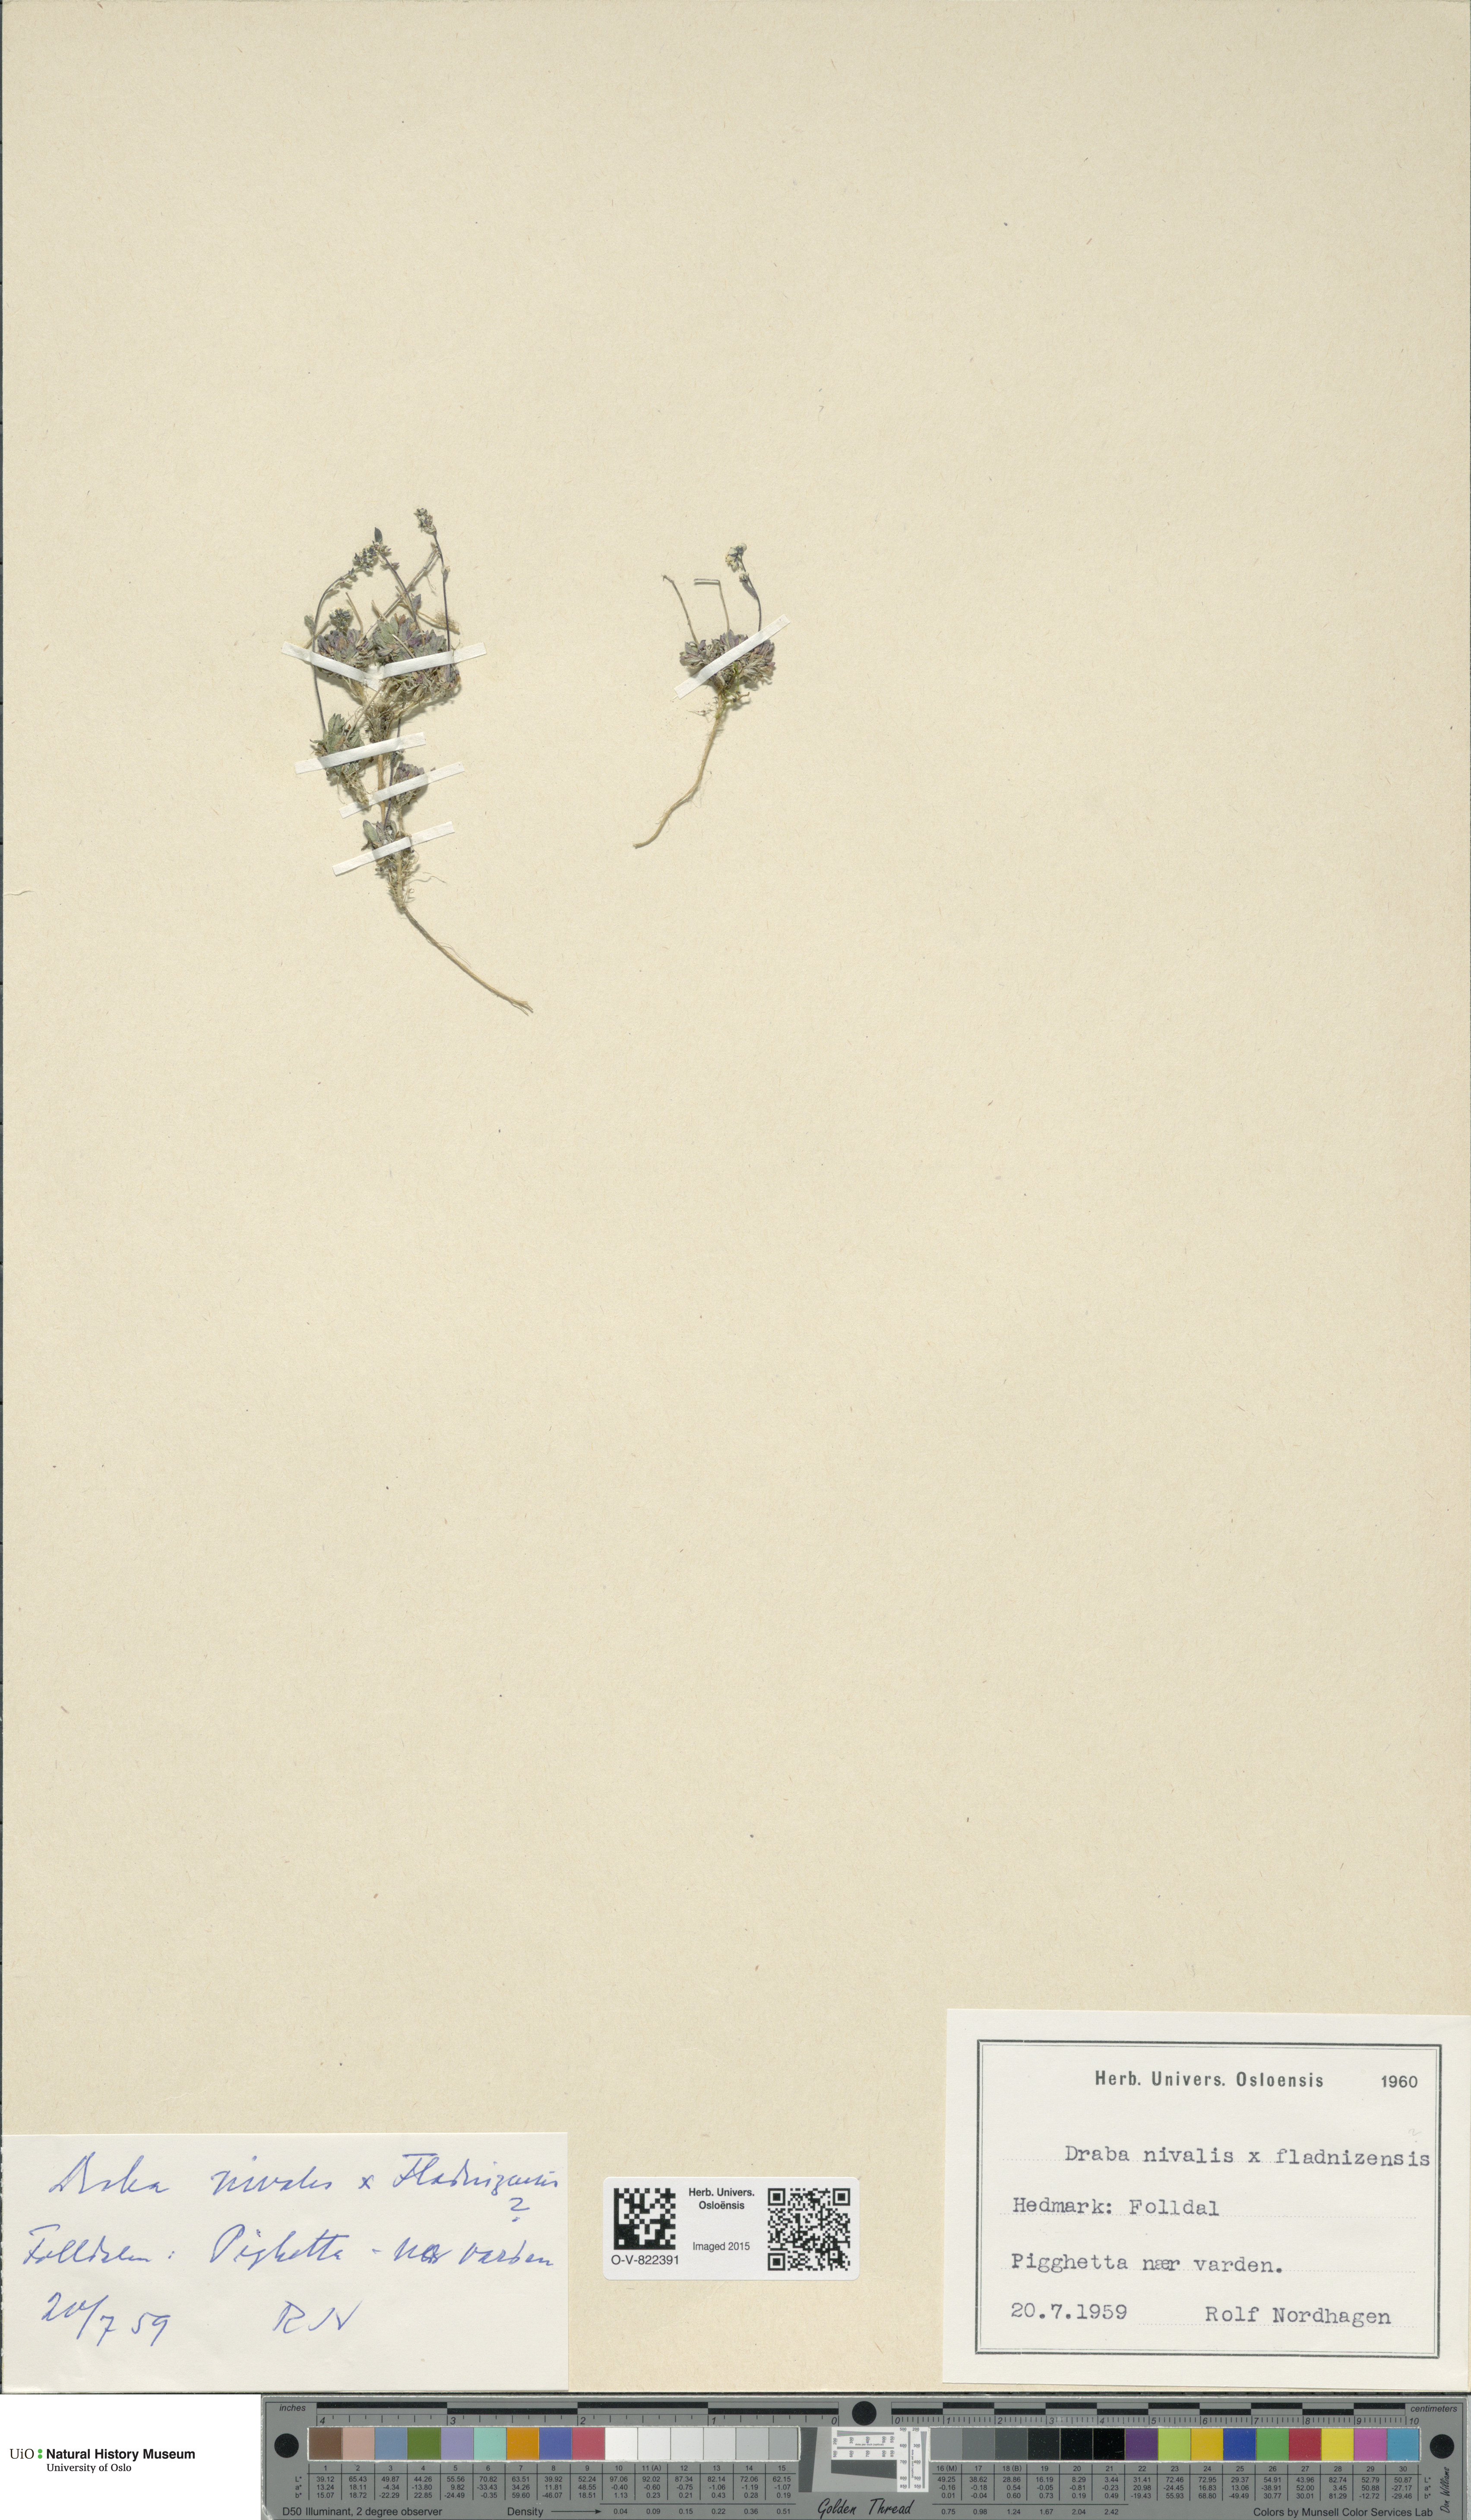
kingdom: Plantae
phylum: Tracheophyta
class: Magnoliopsida
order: Brassicales
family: Brassicaceae
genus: Draba
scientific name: Draba
